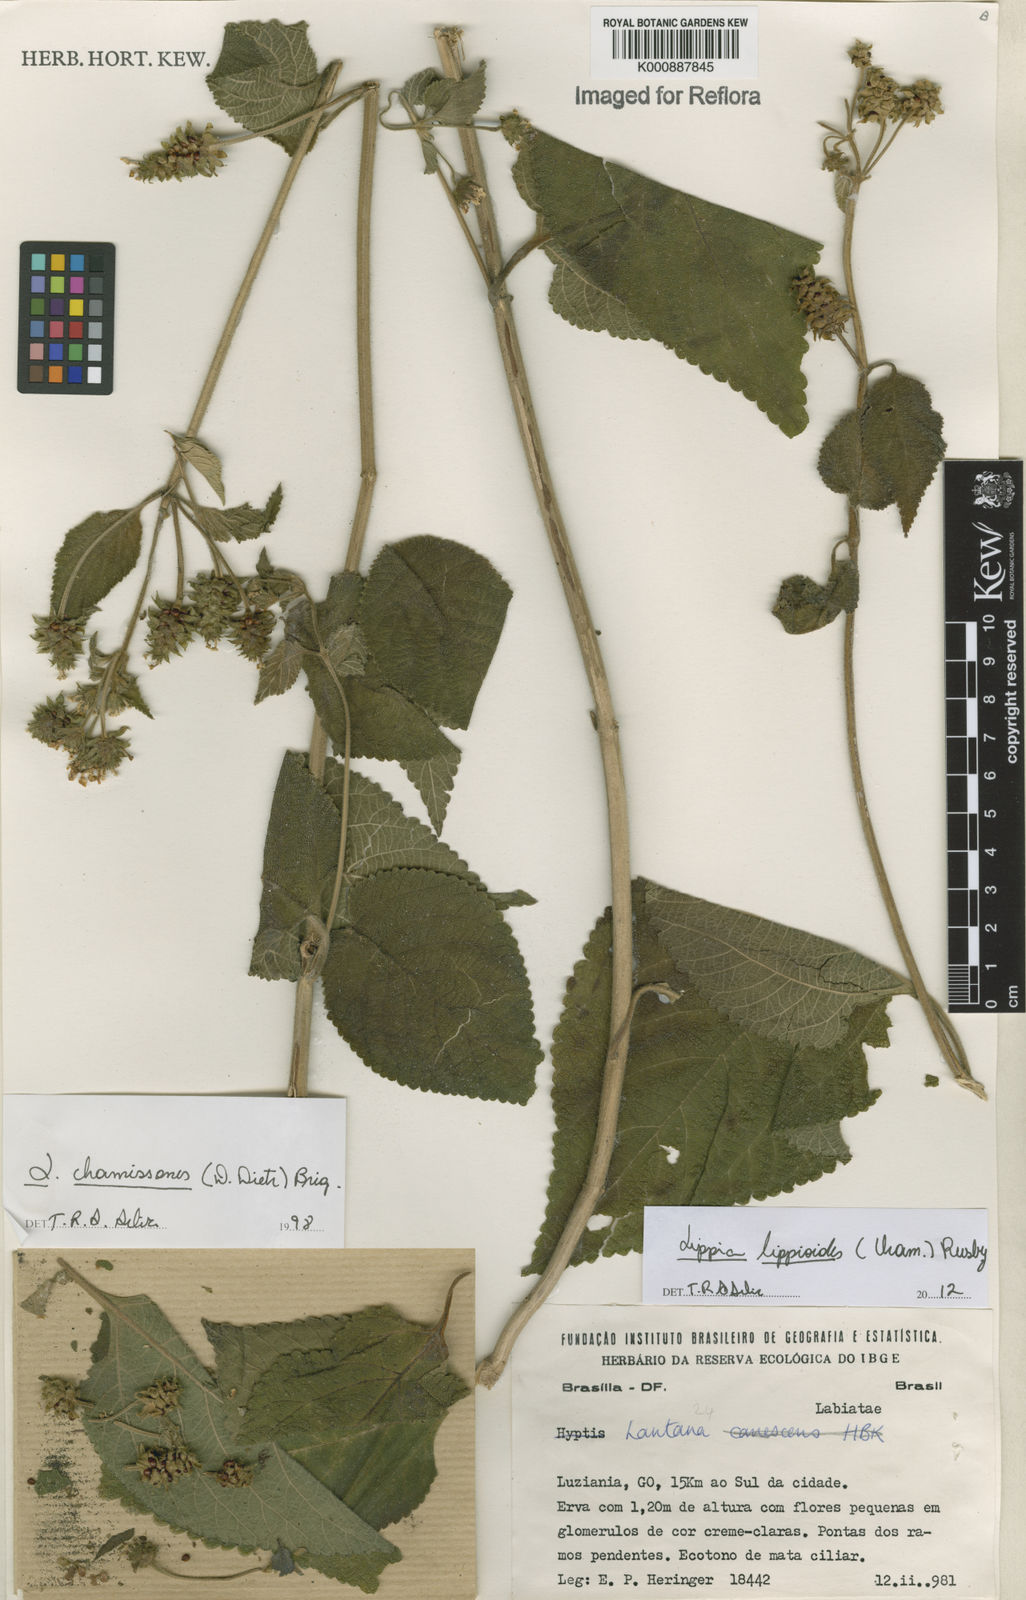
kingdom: Plantae
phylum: Tracheophyta
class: Magnoliopsida
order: Lamiales
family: Verbenaceae
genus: Lippia
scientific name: Lippia lippioides
